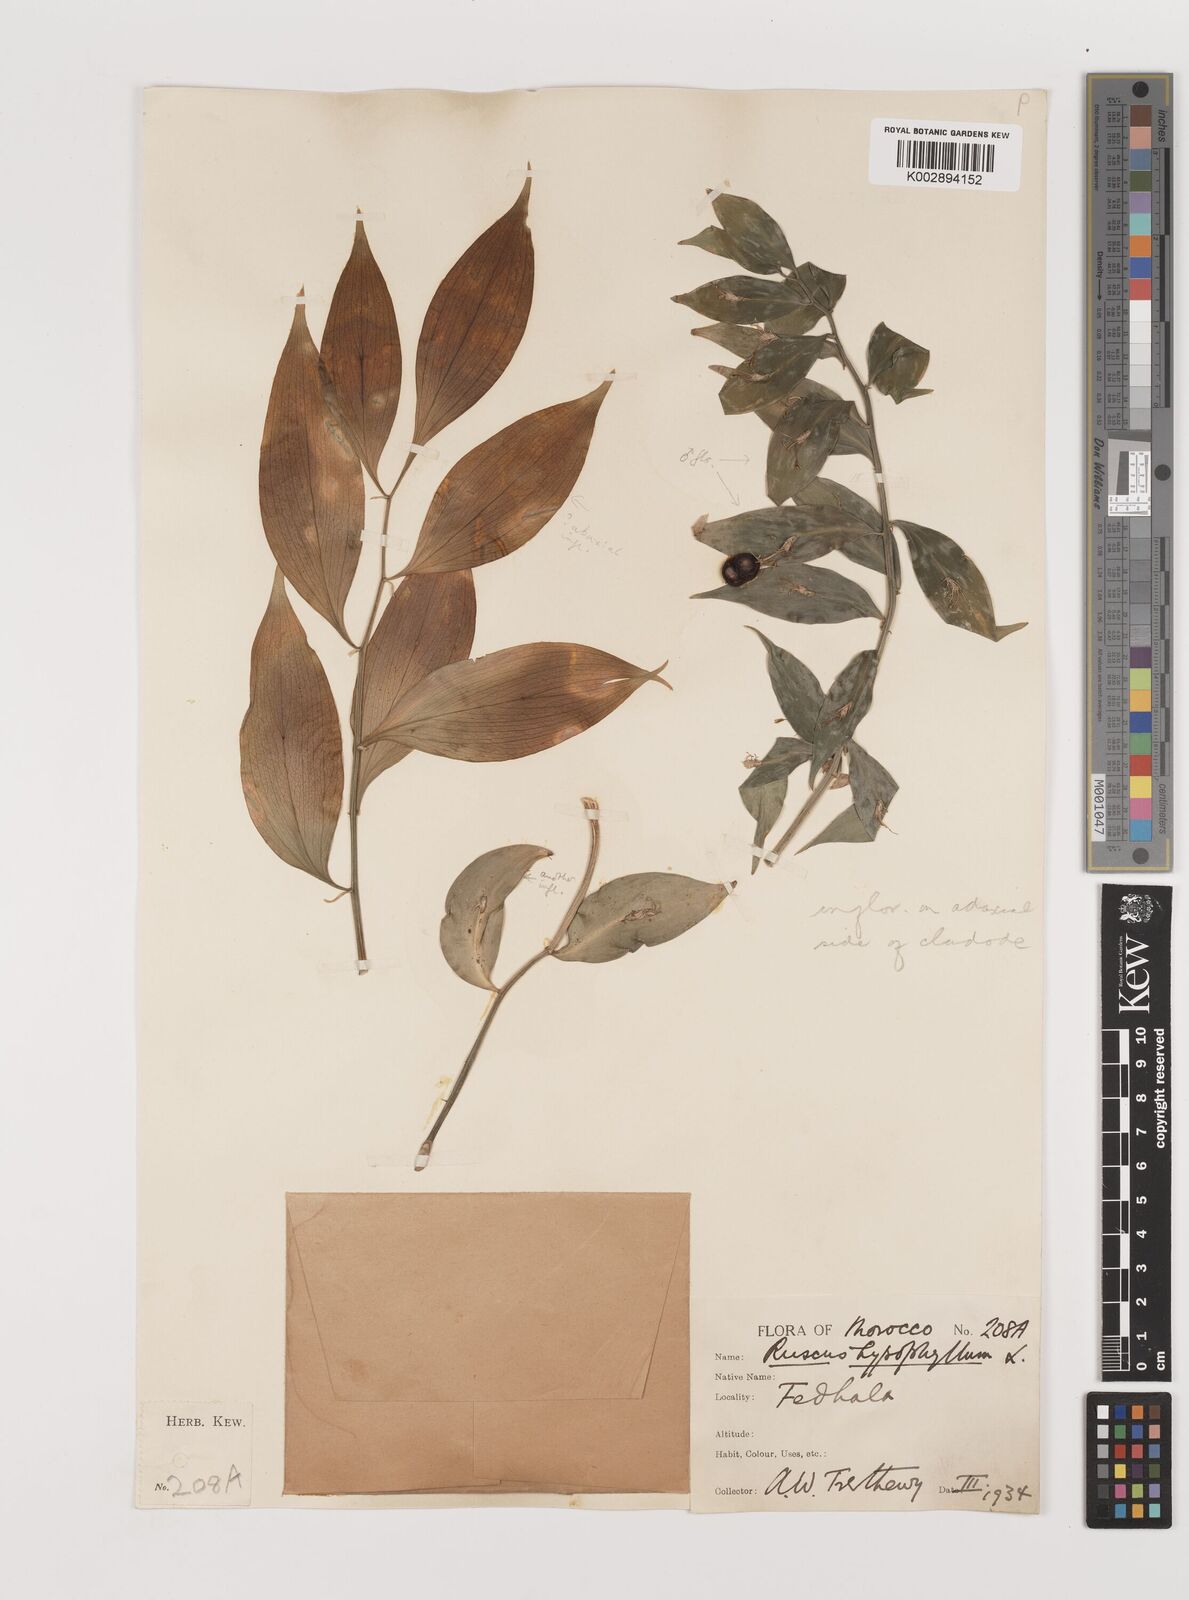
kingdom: Plantae
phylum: Tracheophyta
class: Liliopsida
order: Asparagales
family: Asparagaceae
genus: Ruscus
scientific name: Ruscus hypophyllum
